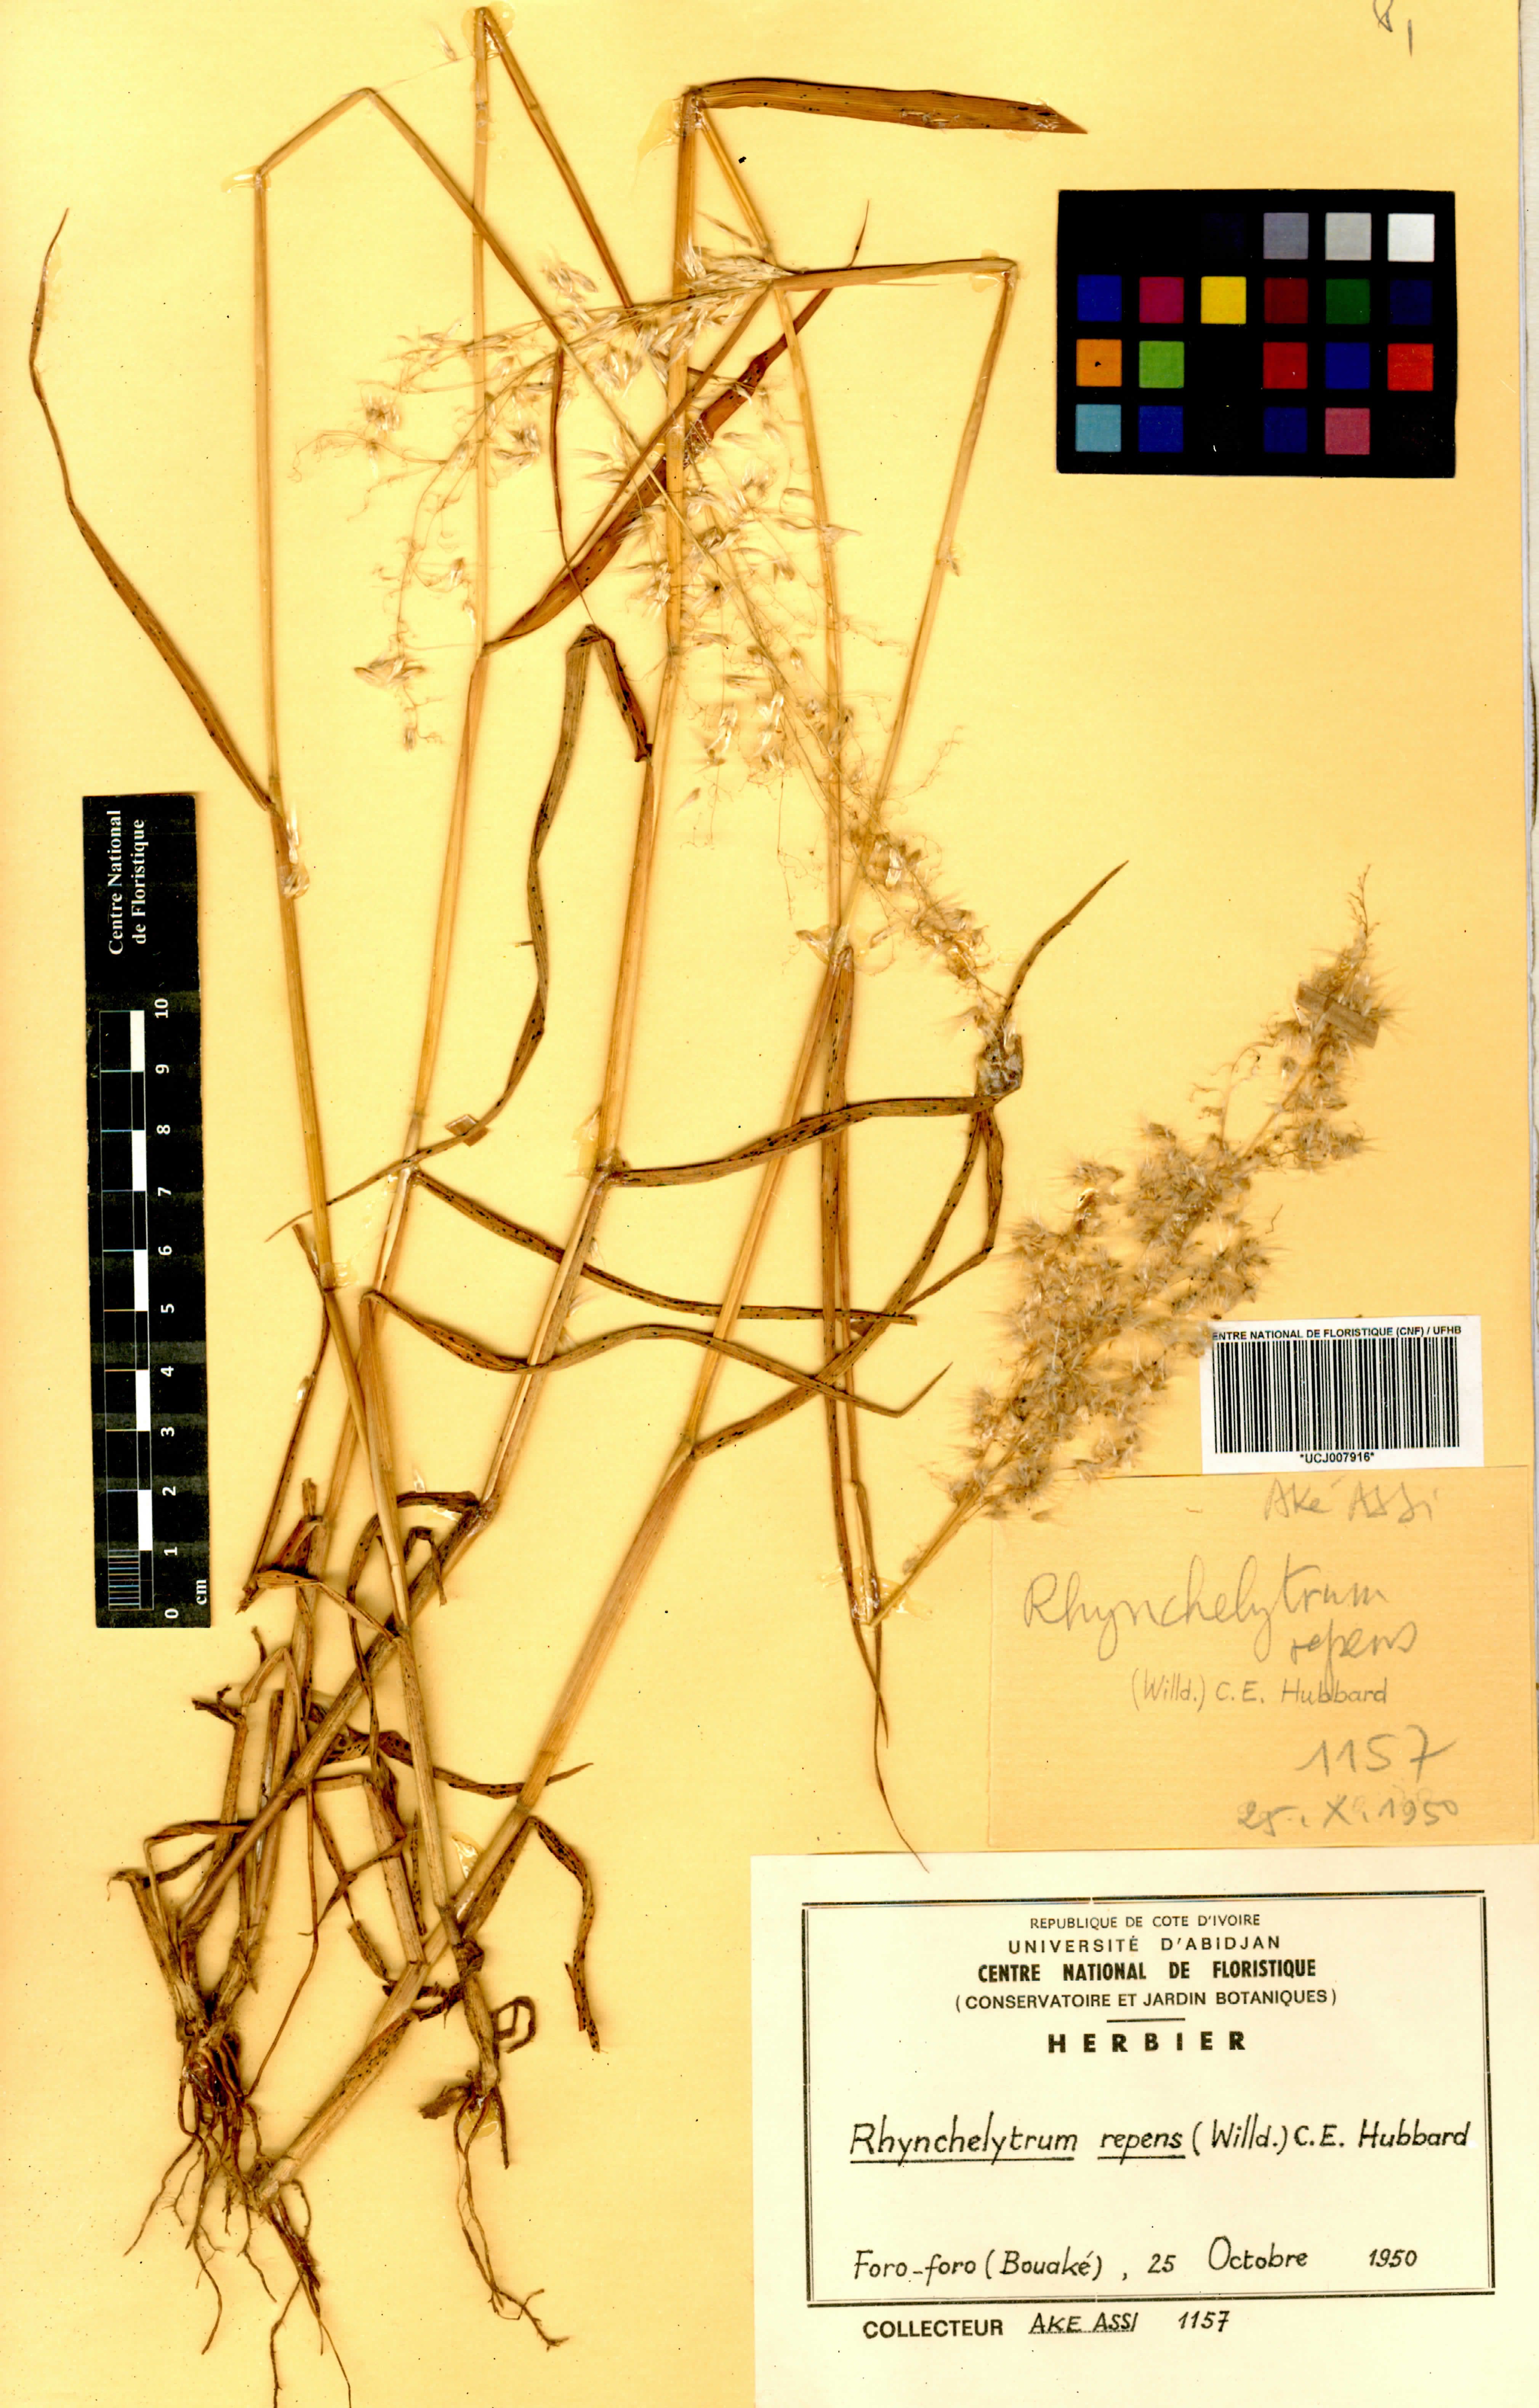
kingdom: Plantae
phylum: Tracheophyta
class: Liliopsida
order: Poales
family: Poaceae
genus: Melinis
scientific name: Melinis repens
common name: Rose natal grass
